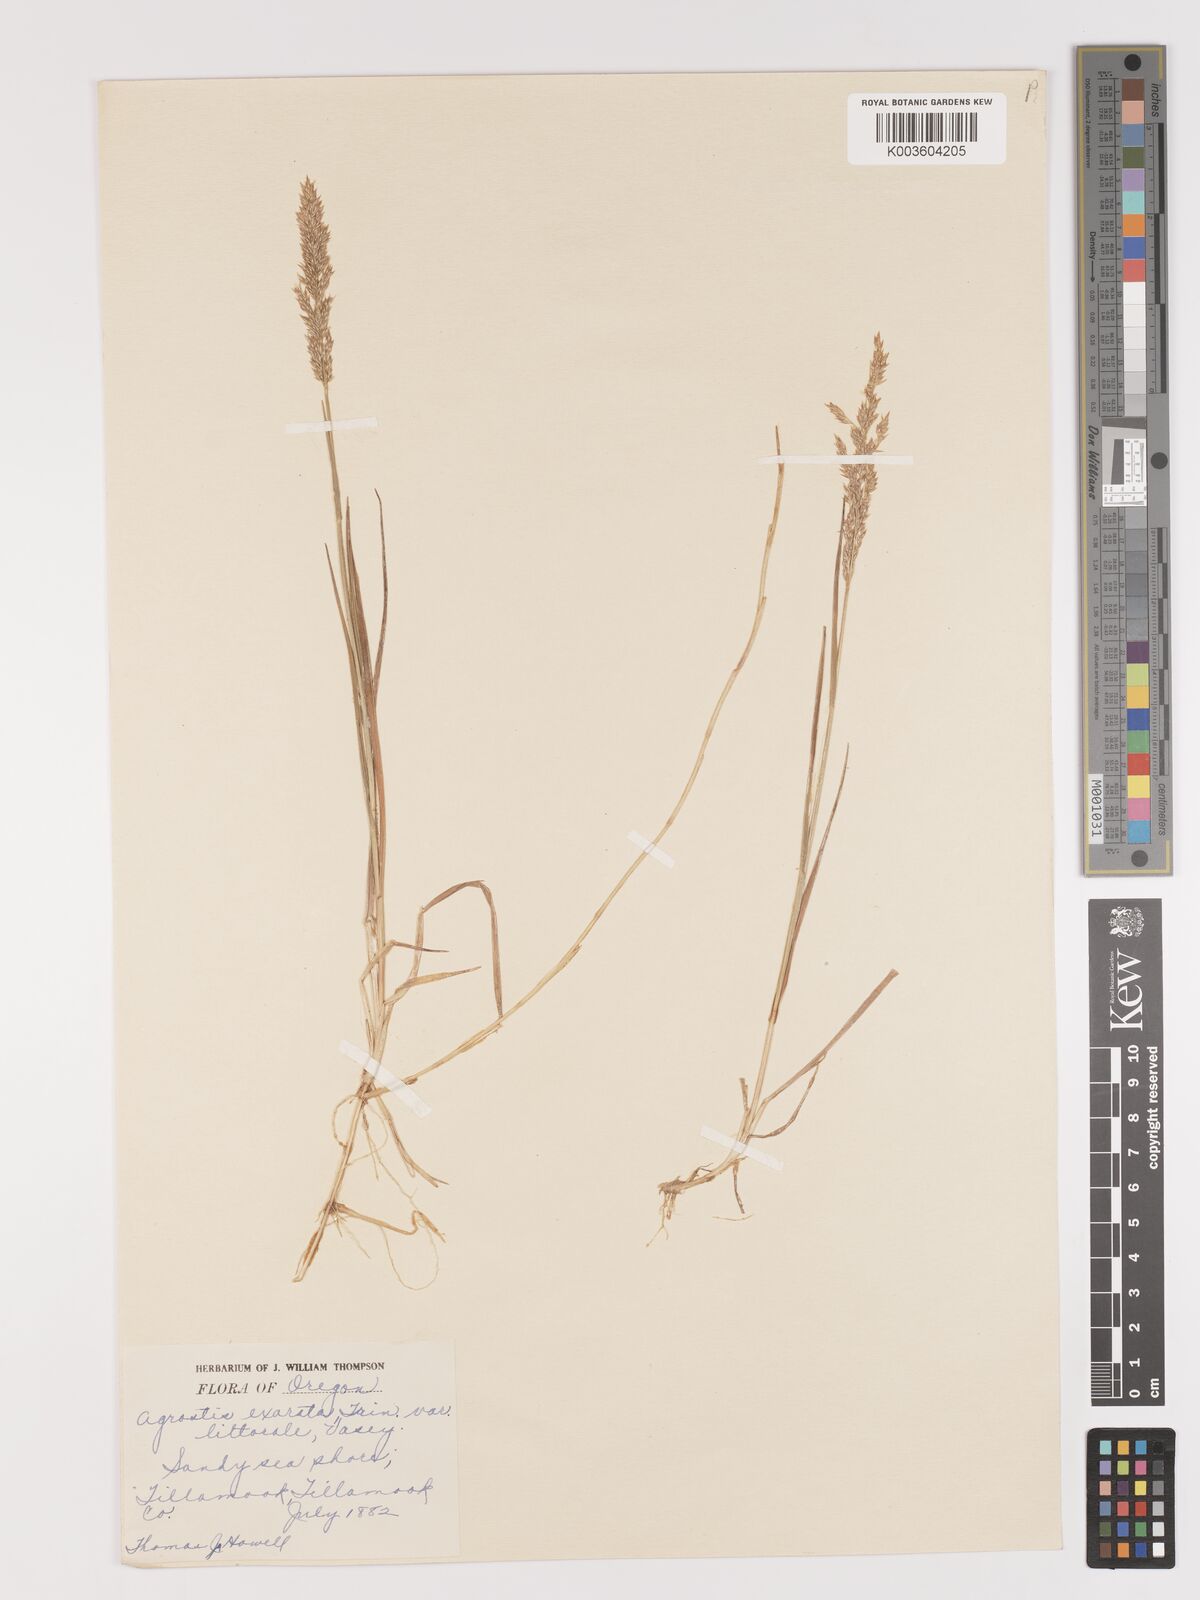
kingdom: Plantae
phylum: Tracheophyta
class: Liliopsida
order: Poales
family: Poaceae
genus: Agrostis
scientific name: Agrostis pallens
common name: Dune bent
